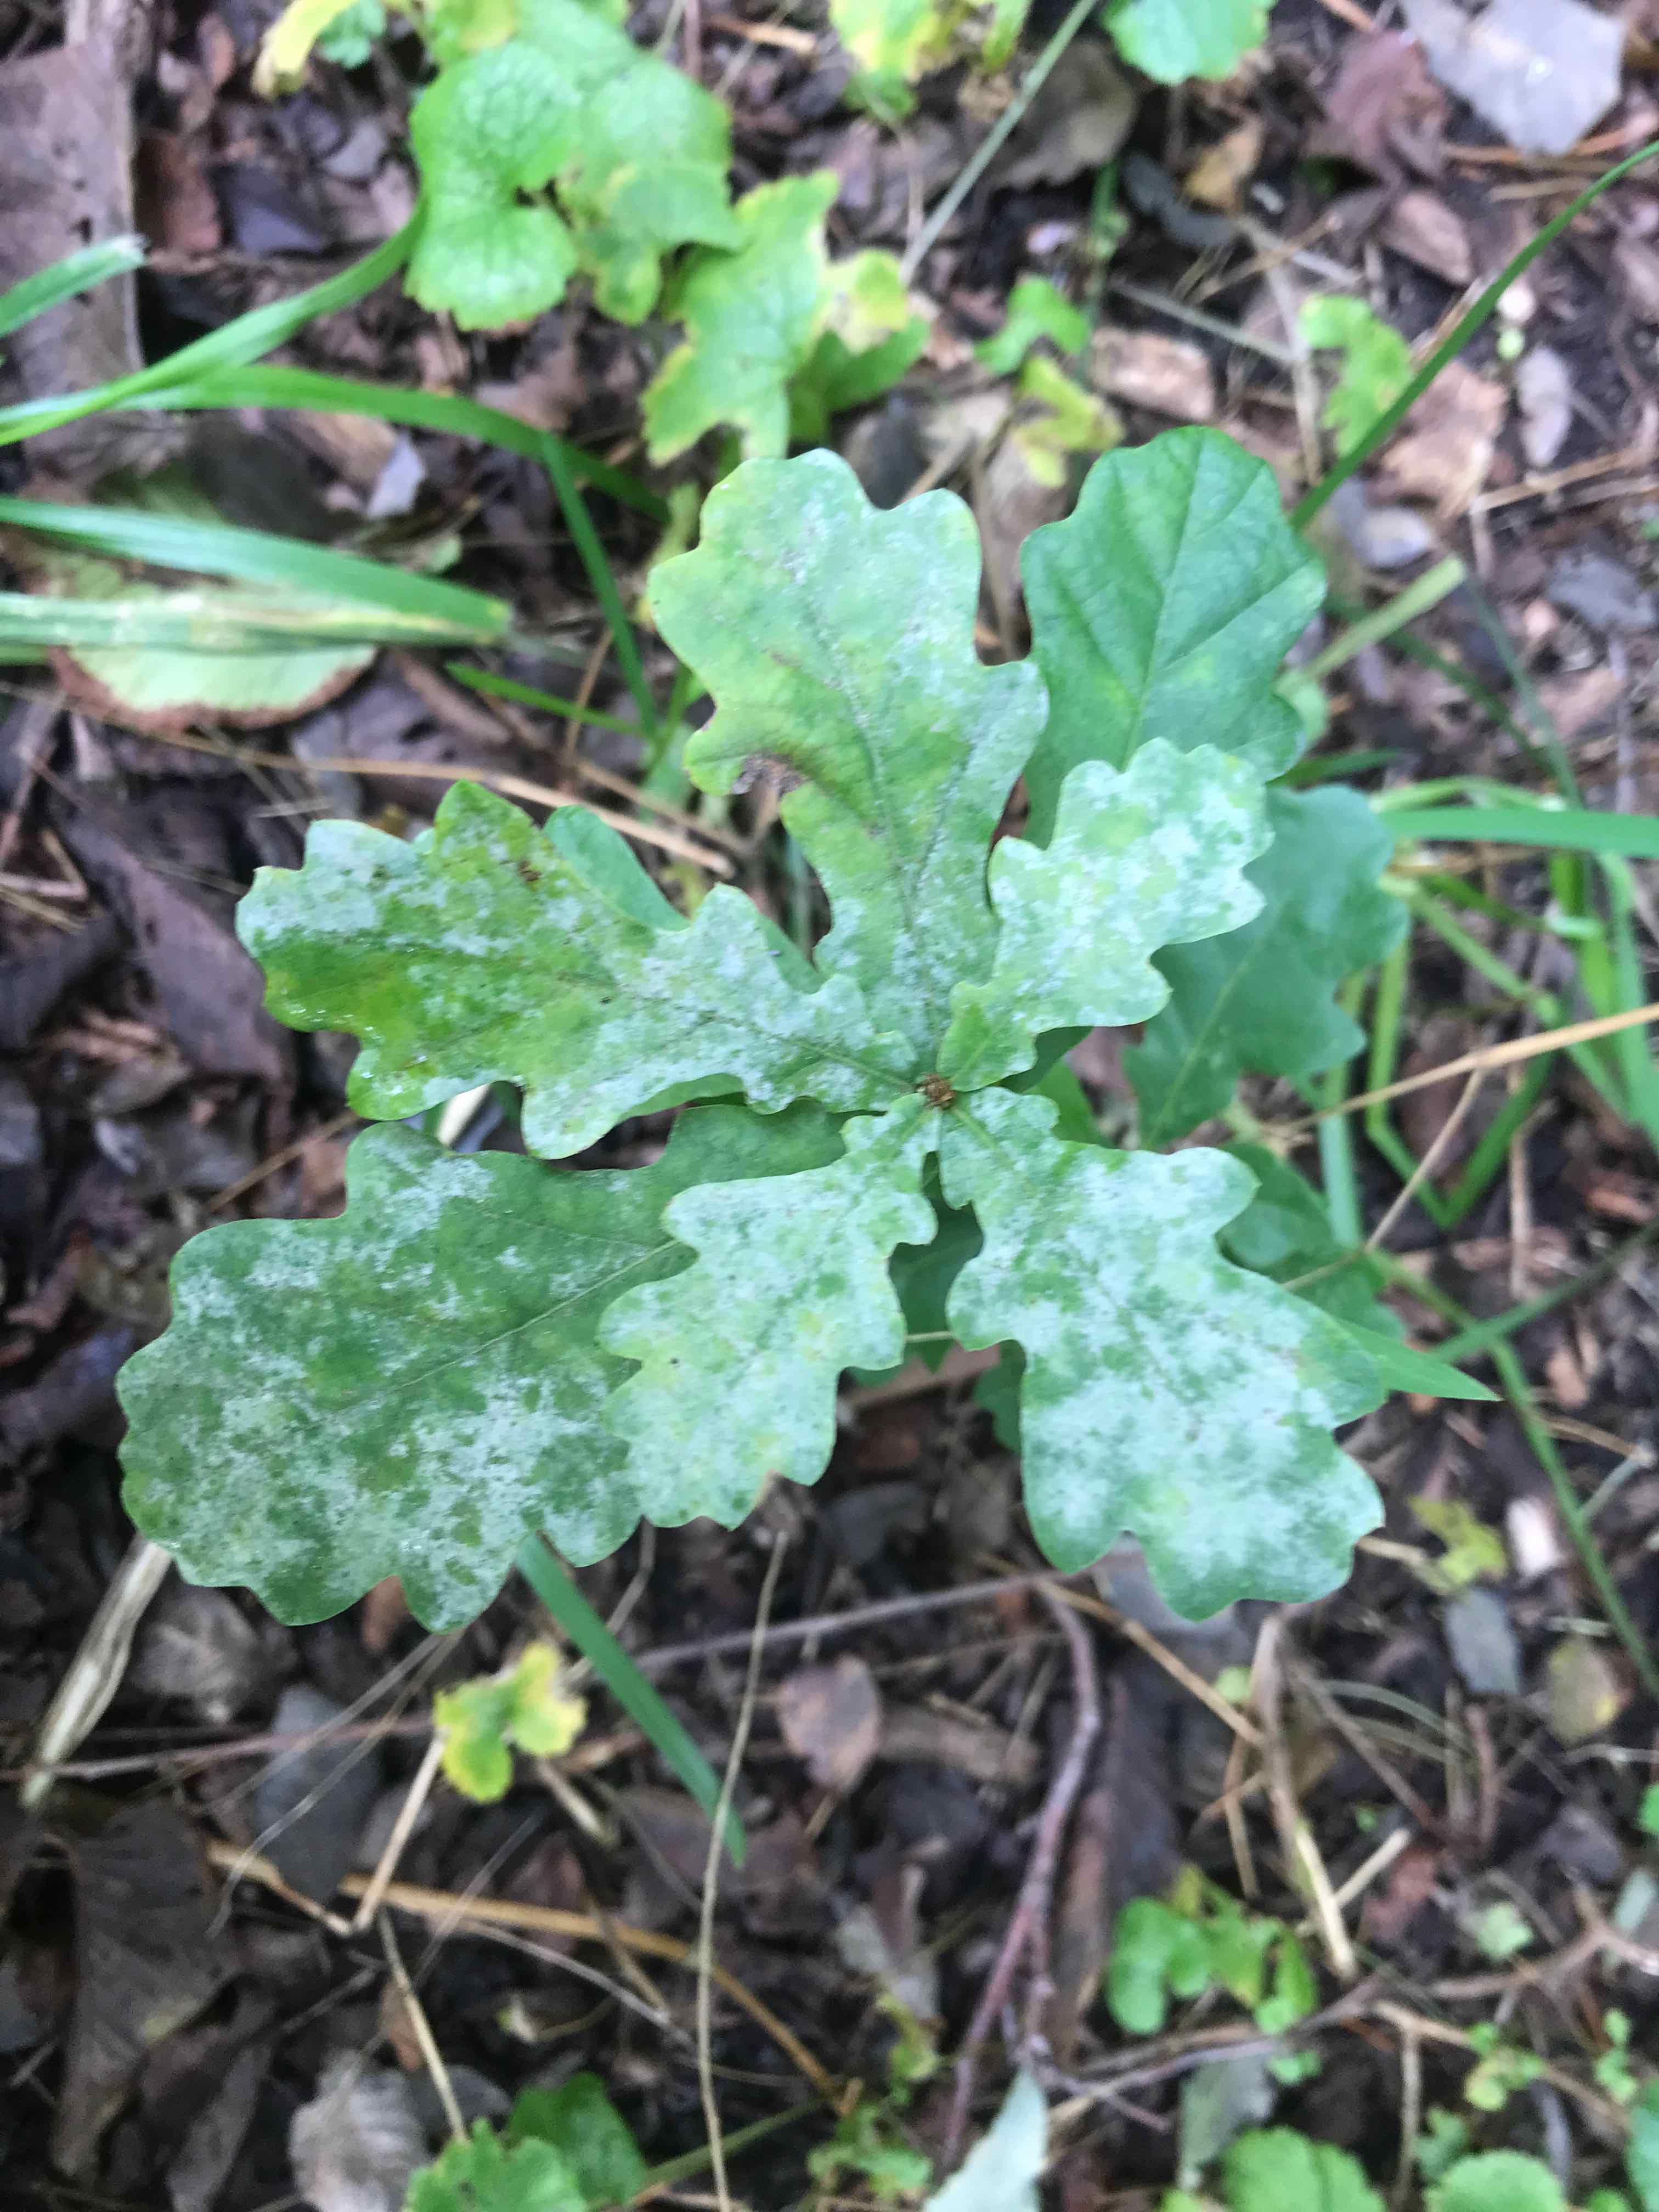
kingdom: Fungi
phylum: Ascomycota
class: Leotiomycetes
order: Helotiales
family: Erysiphaceae
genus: Erysiphe
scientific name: Erysiphe alphitoides
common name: ege-meldug
